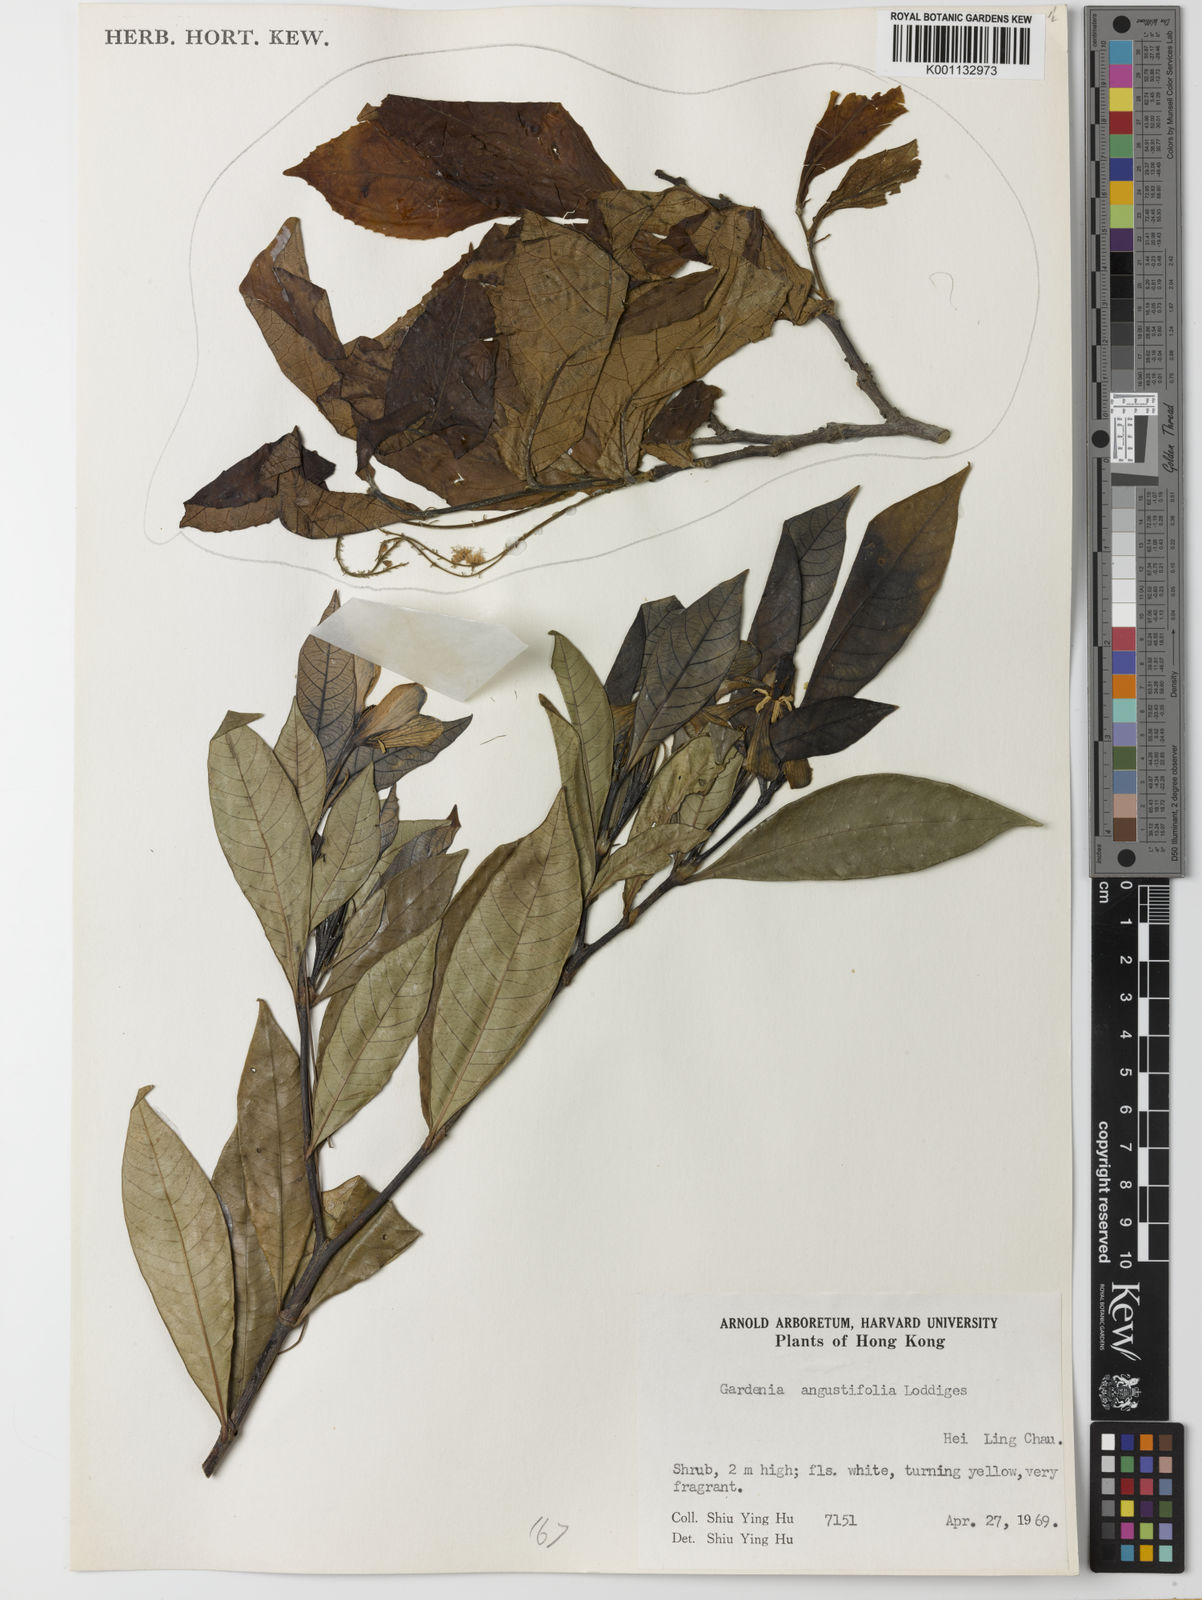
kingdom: Plantae
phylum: Tracheophyta
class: Magnoliopsida
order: Gentianales
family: Rubiaceae
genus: Gardenia
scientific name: Gardenia jasminoides
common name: Cape-jasmine
